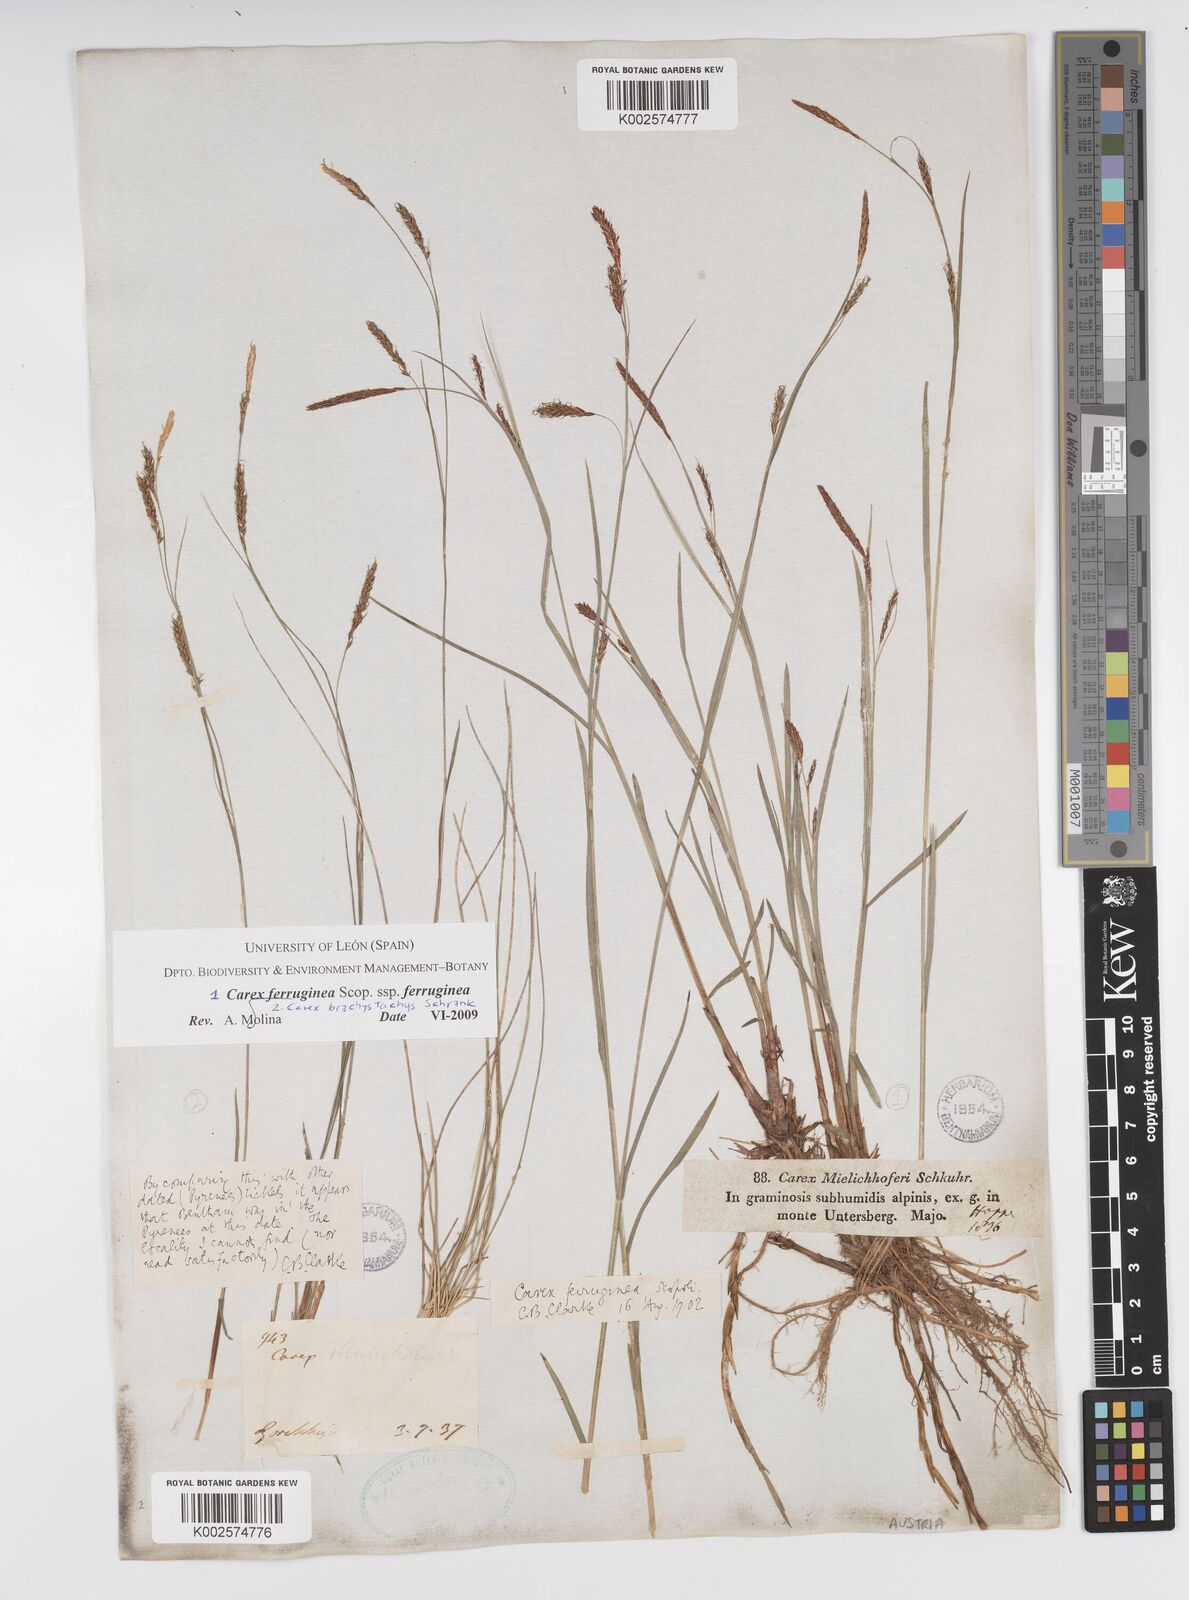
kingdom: Plantae
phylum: Tracheophyta
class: Liliopsida
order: Poales
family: Cyperaceae
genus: Carex
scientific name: Carex austroalpina
